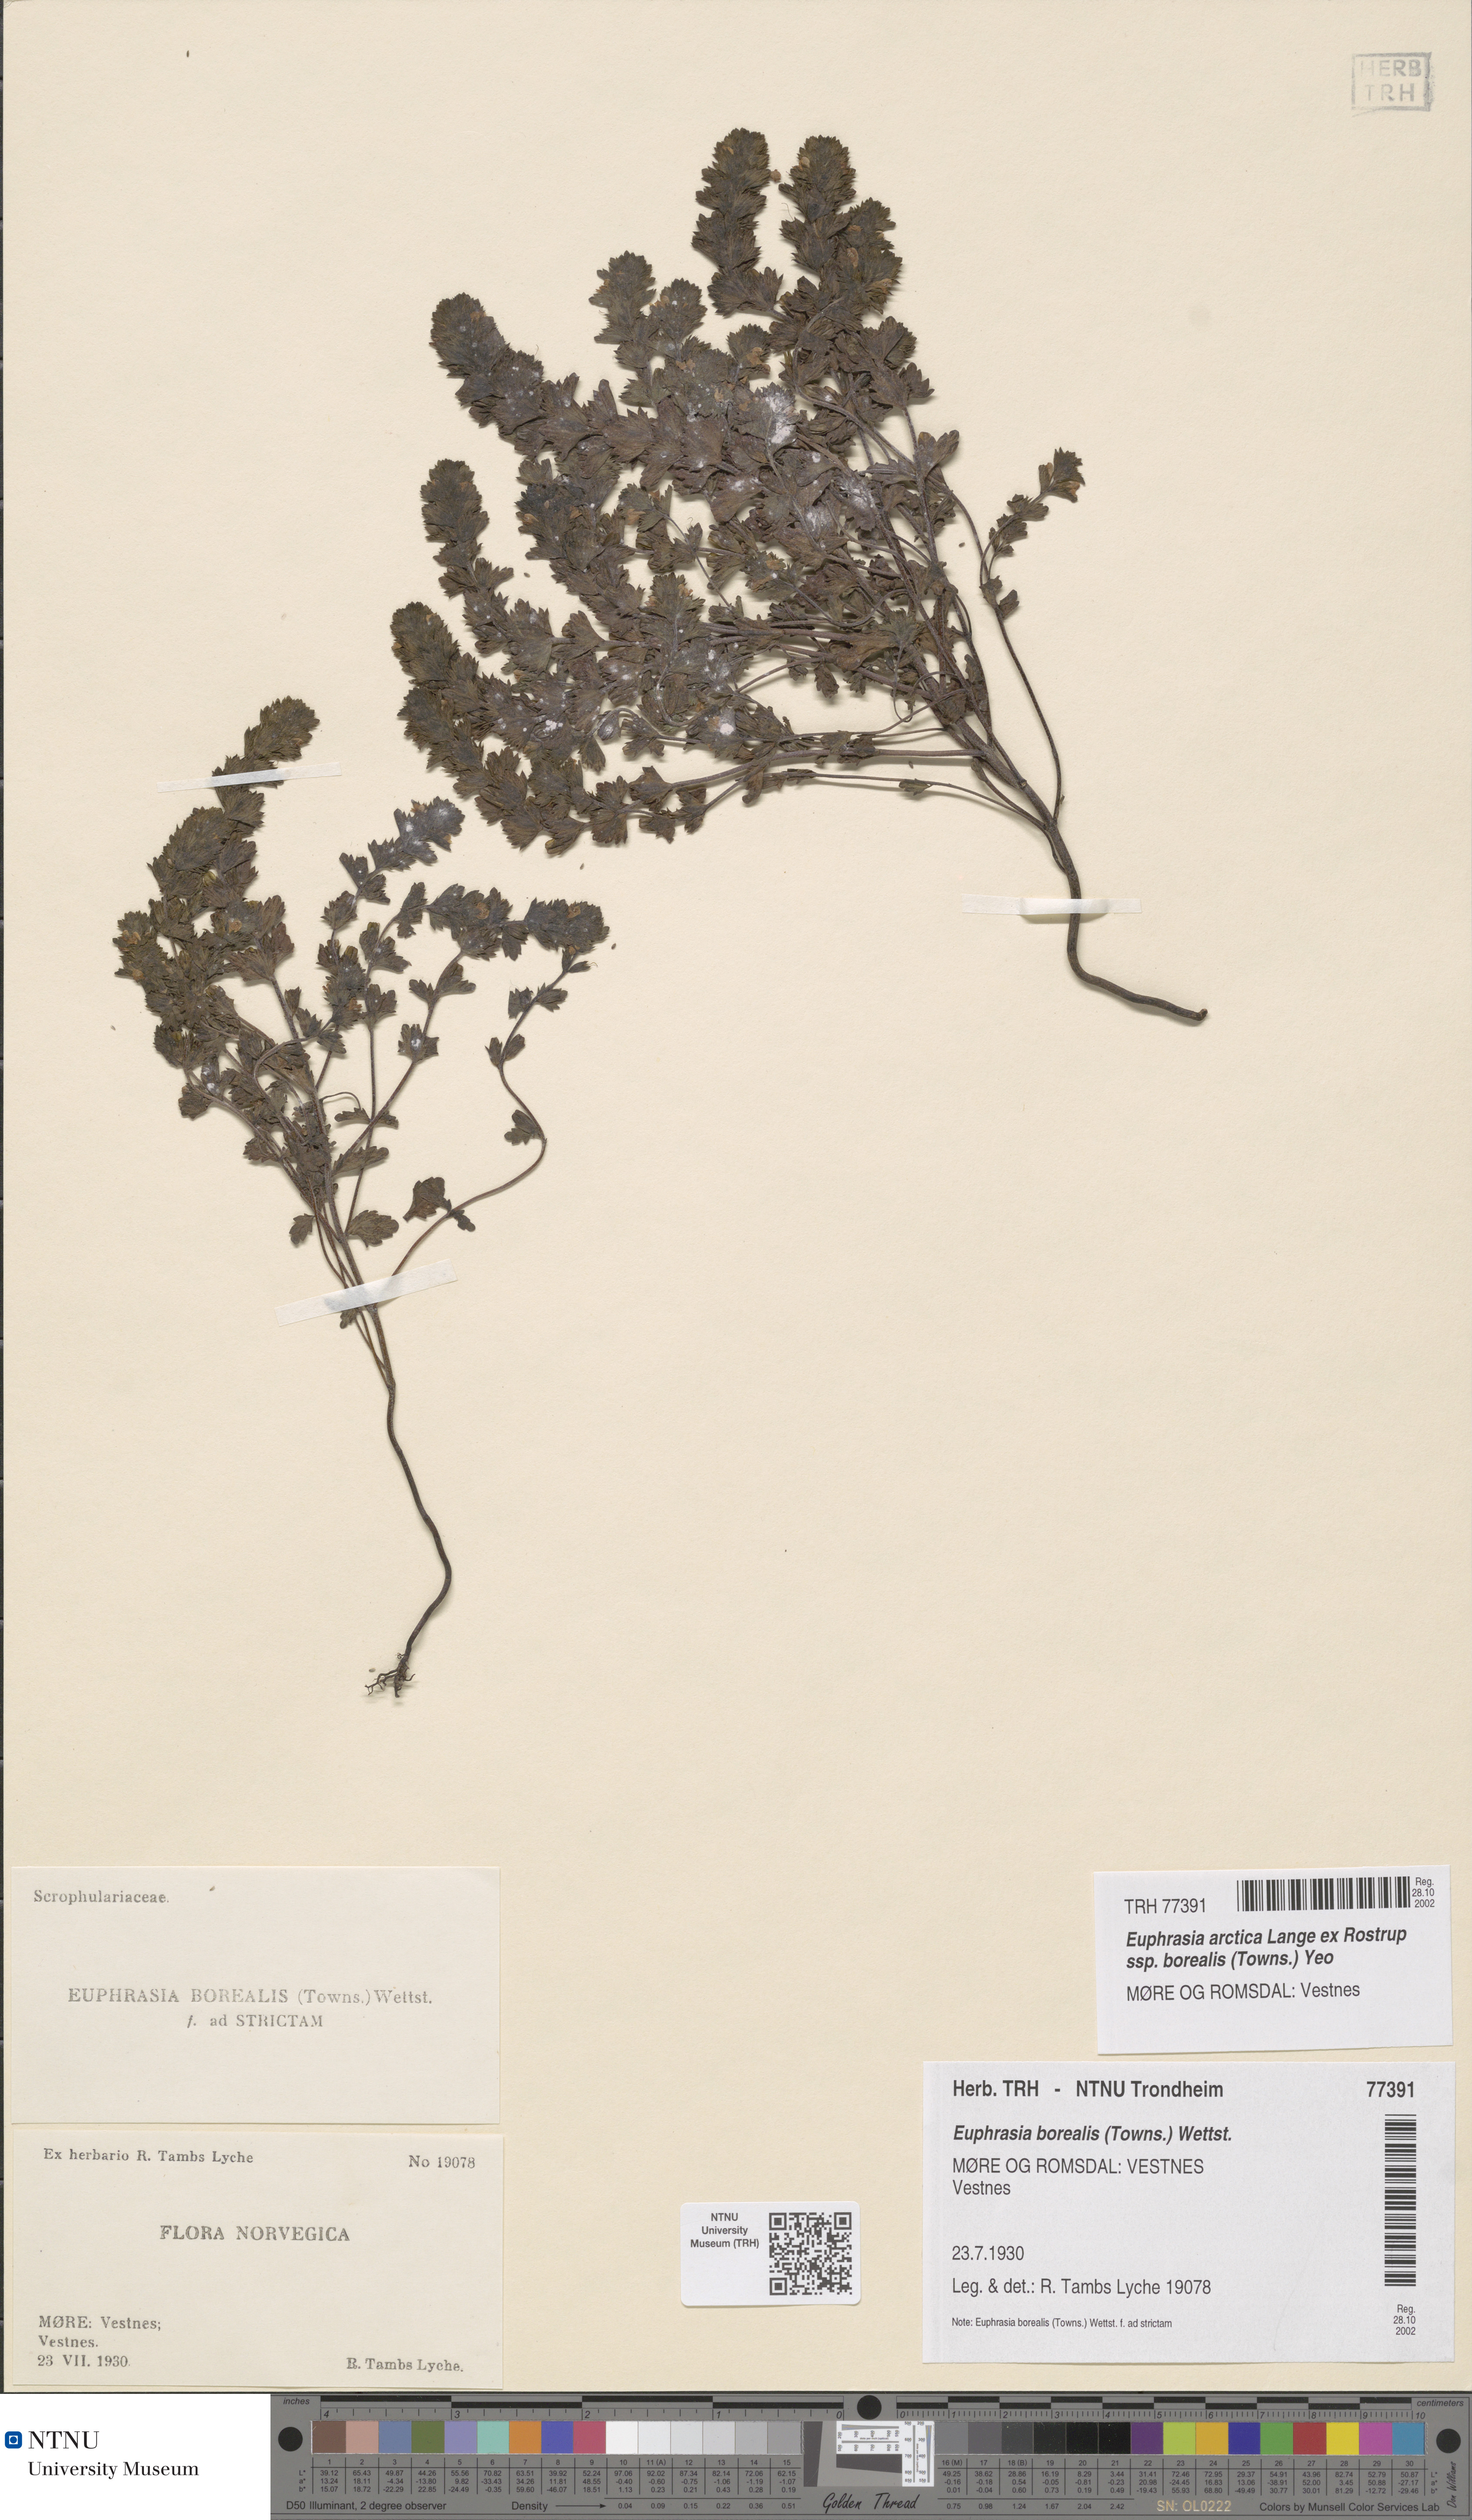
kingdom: Plantae
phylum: Tracheophyta
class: Magnoliopsida
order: Lamiales
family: Orobanchaceae
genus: Euphrasia
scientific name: Euphrasia arctica
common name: An eyebright
